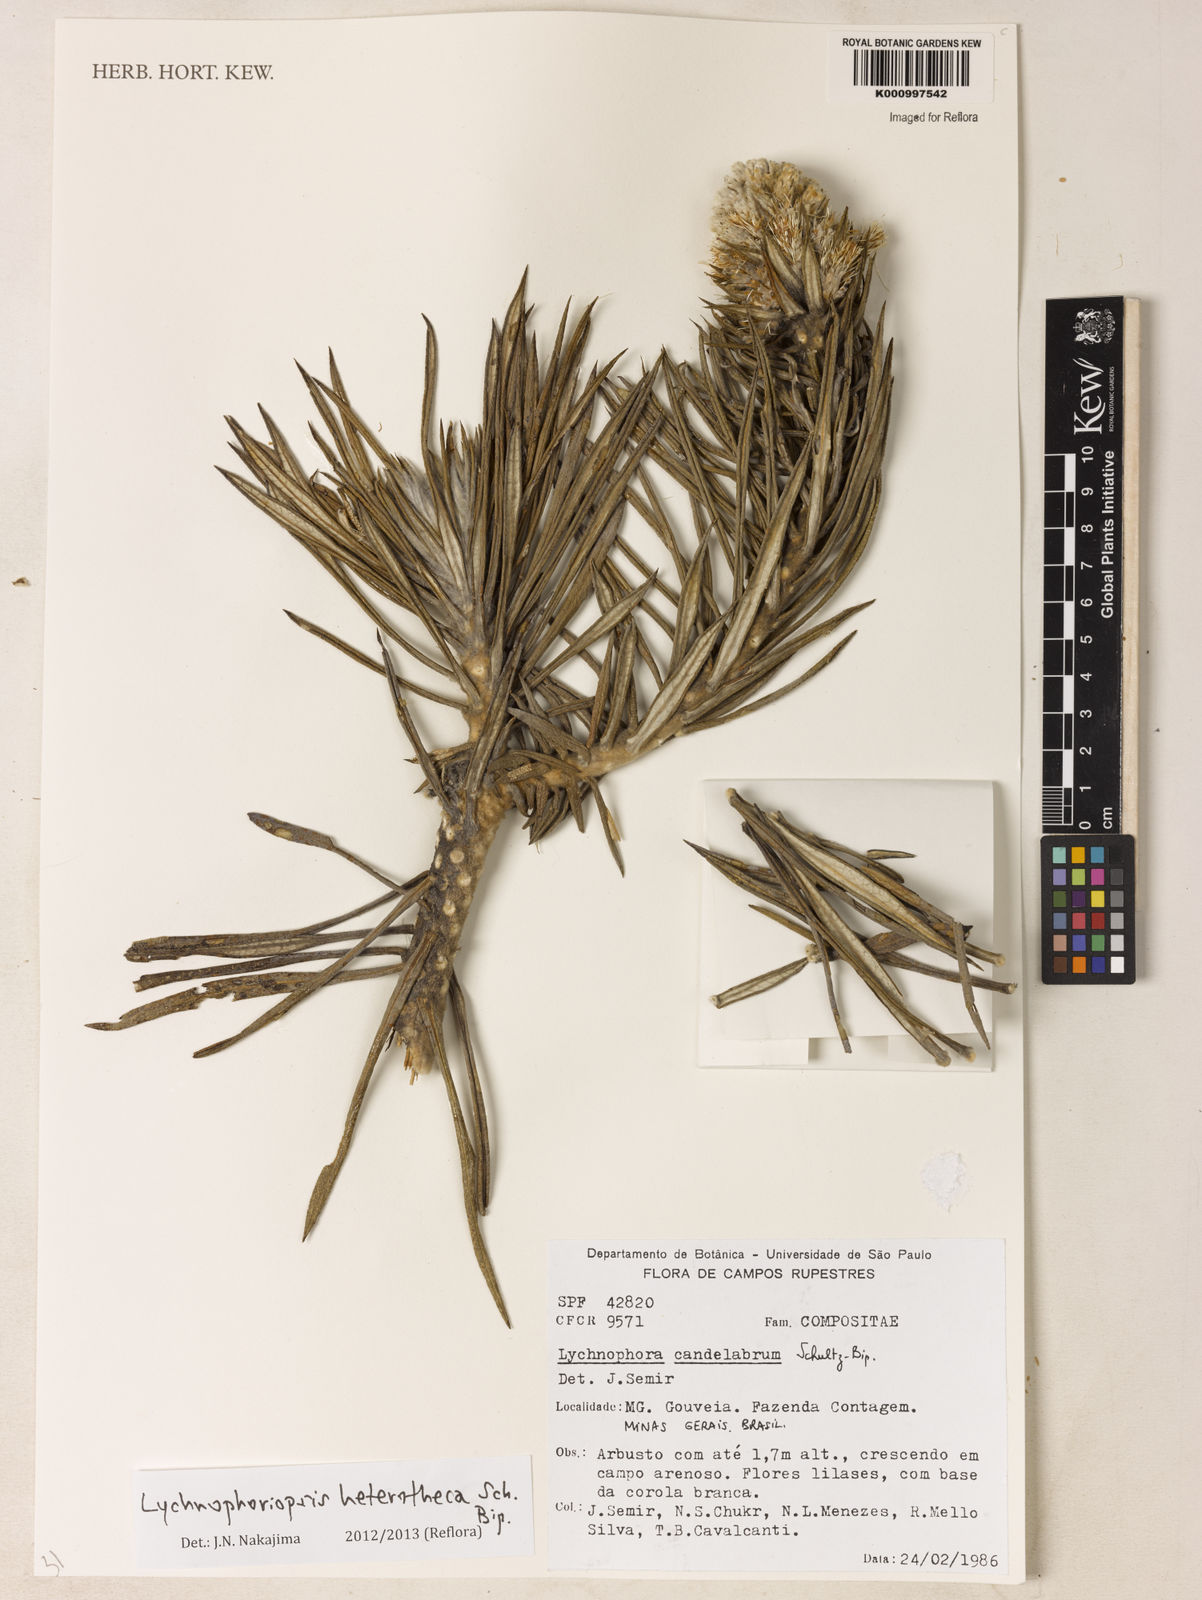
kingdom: Plantae
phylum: Tracheophyta
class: Magnoliopsida
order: Asterales
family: Asteraceae
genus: Lychnophora
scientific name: Lychnophora candelabrum
